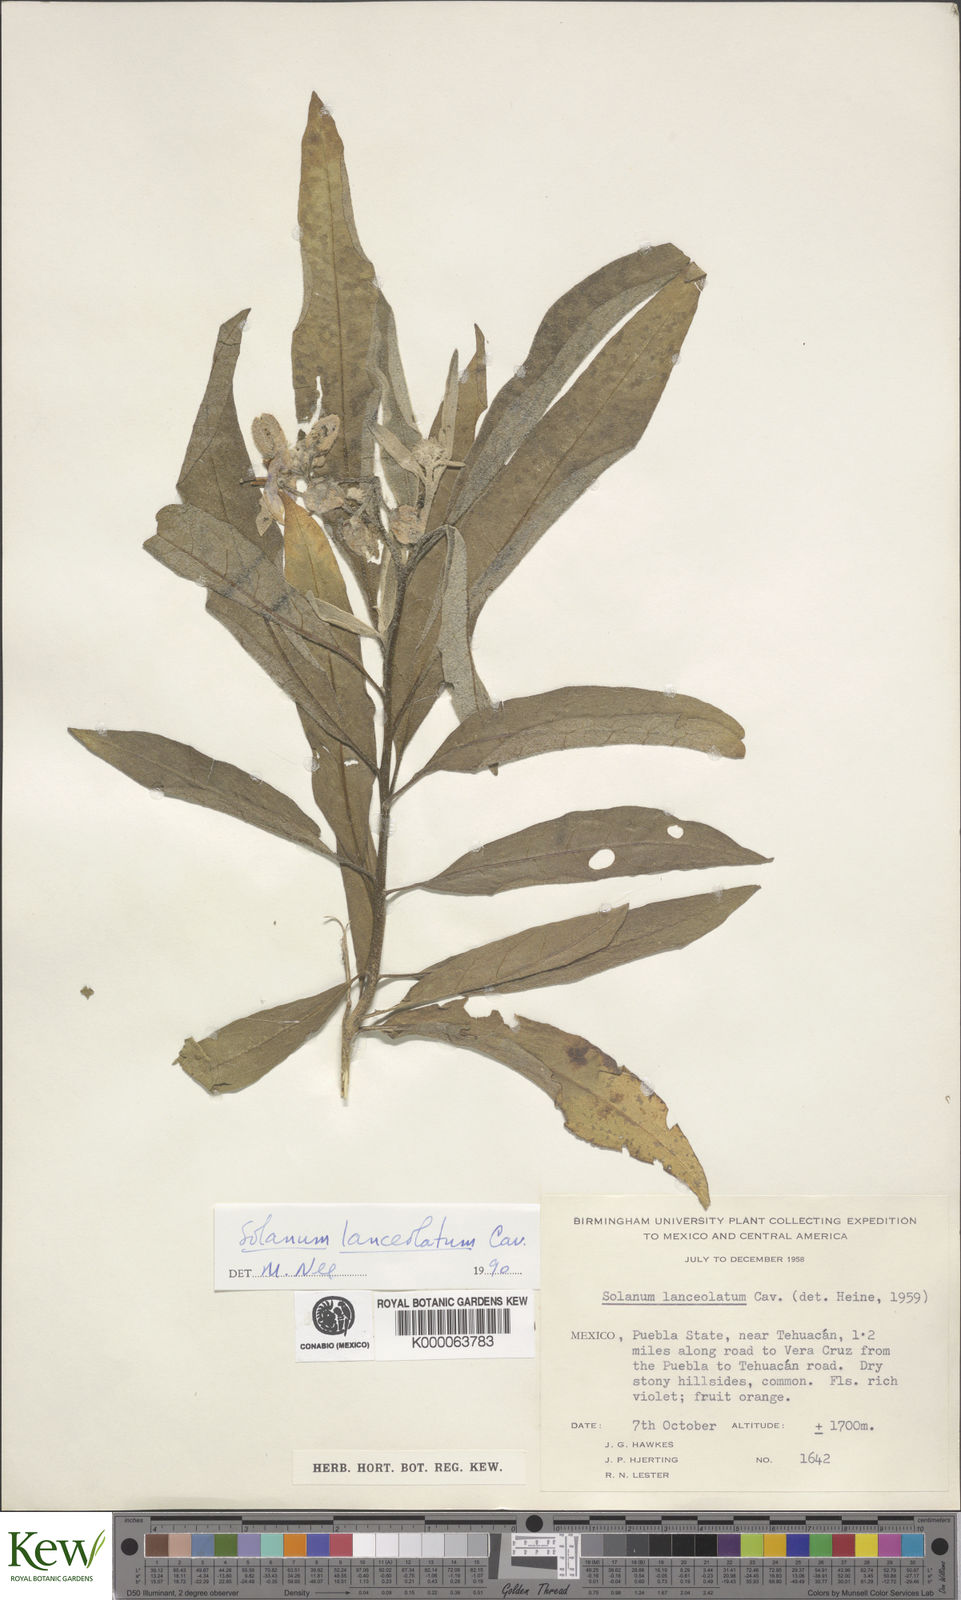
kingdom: Plantae
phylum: Tracheophyta
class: Magnoliopsida
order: Solanales
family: Solanaceae
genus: Solanum
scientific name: Solanum lanceolatum
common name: Orangeberry nightshade
